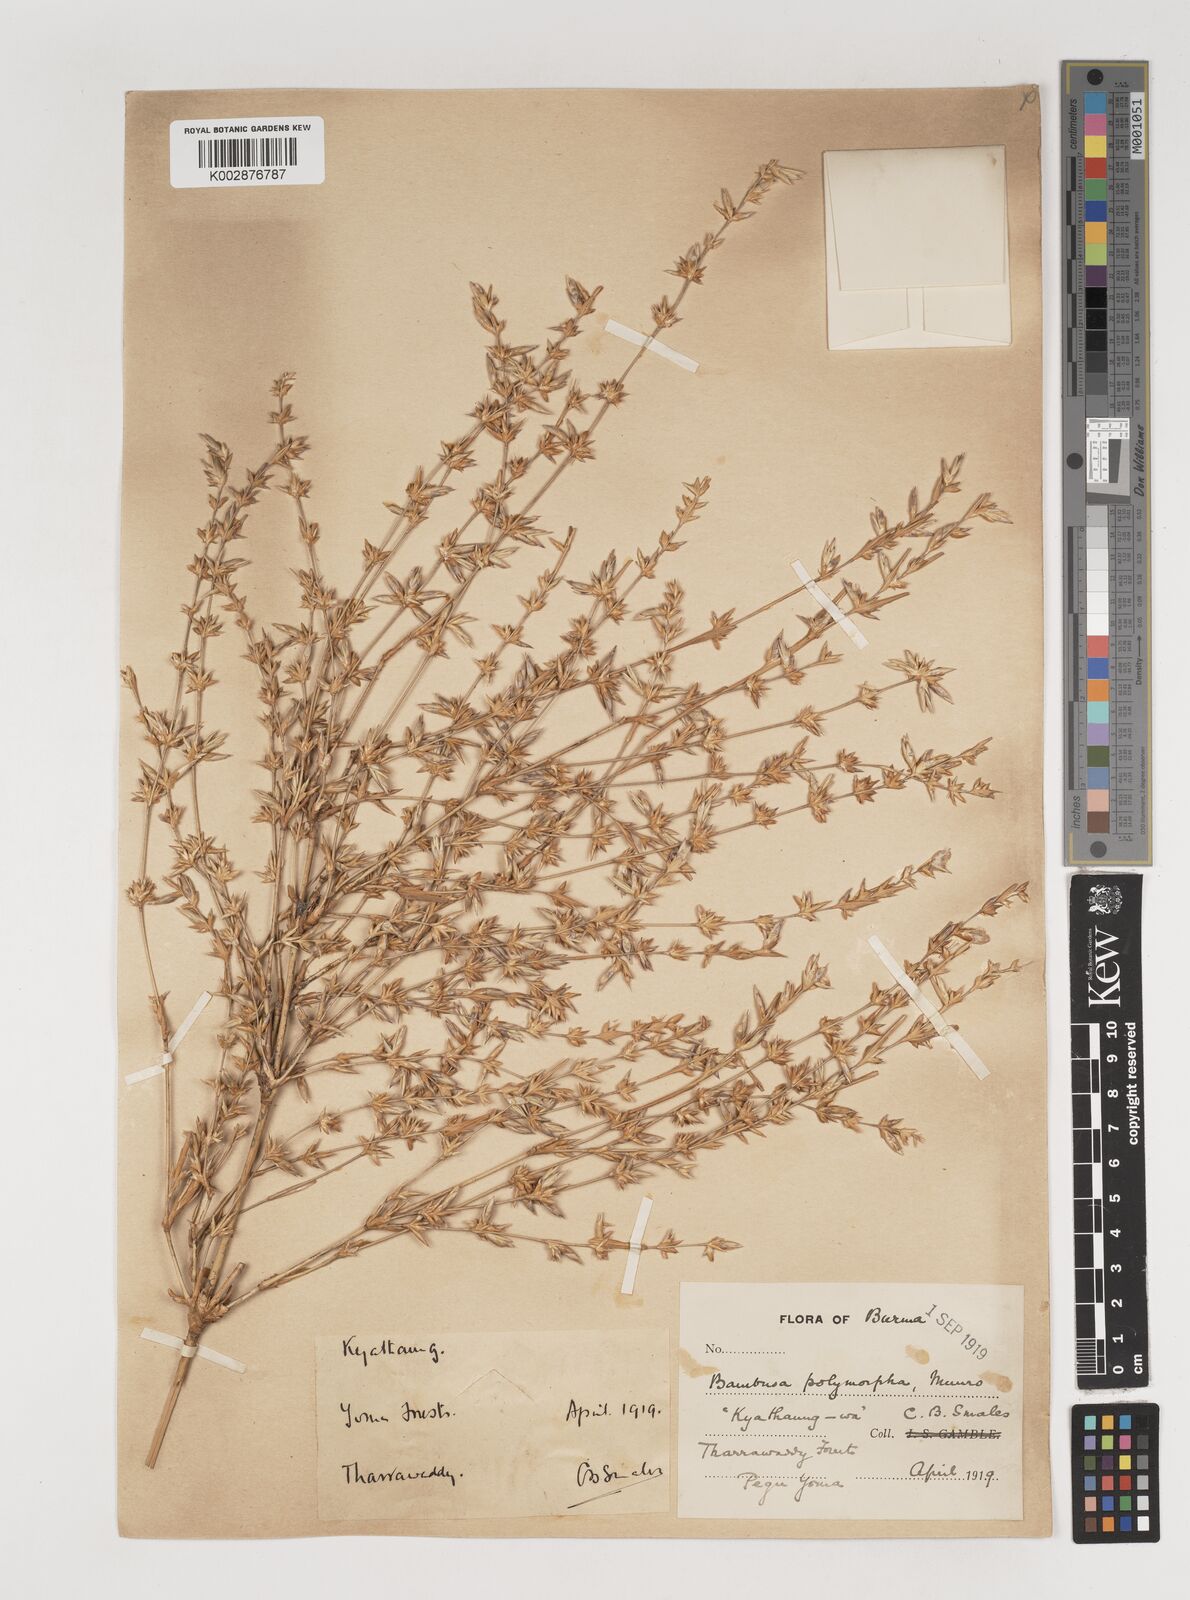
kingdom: Plantae
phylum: Tracheophyta
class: Liliopsida
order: Poales
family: Poaceae
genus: Bambusa
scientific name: Bambusa polymorpha
